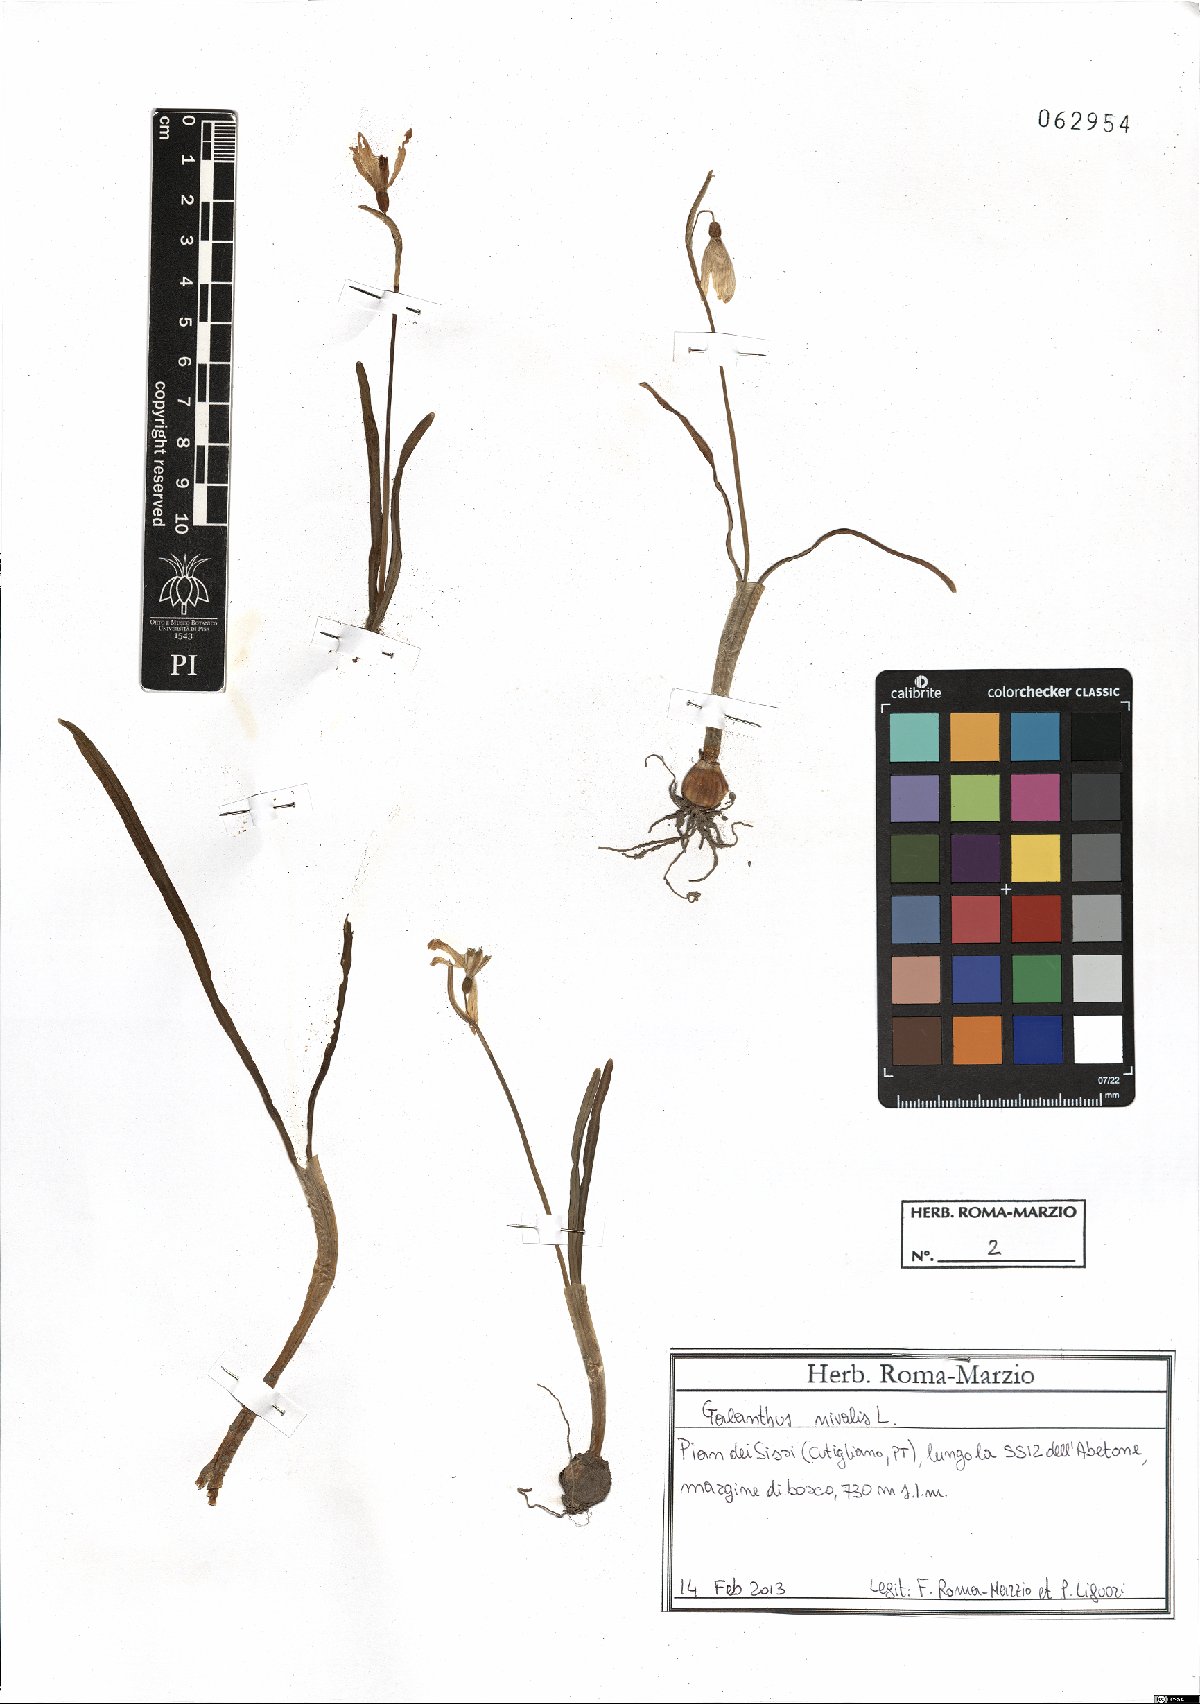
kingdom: Plantae
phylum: Tracheophyta
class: Liliopsida
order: Asparagales
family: Amaryllidaceae
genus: Galanthus
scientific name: Galanthus nivalis
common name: Snowdrop
